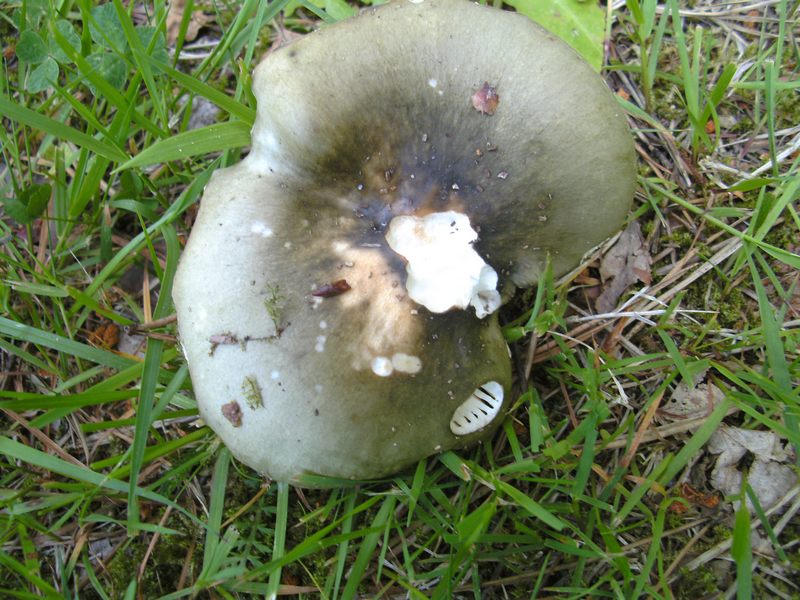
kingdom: Fungi
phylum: Basidiomycota
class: Agaricomycetes
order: Russulales
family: Russulaceae
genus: Russula
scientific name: Russula aeruginea
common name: græsgrøn skørhat
